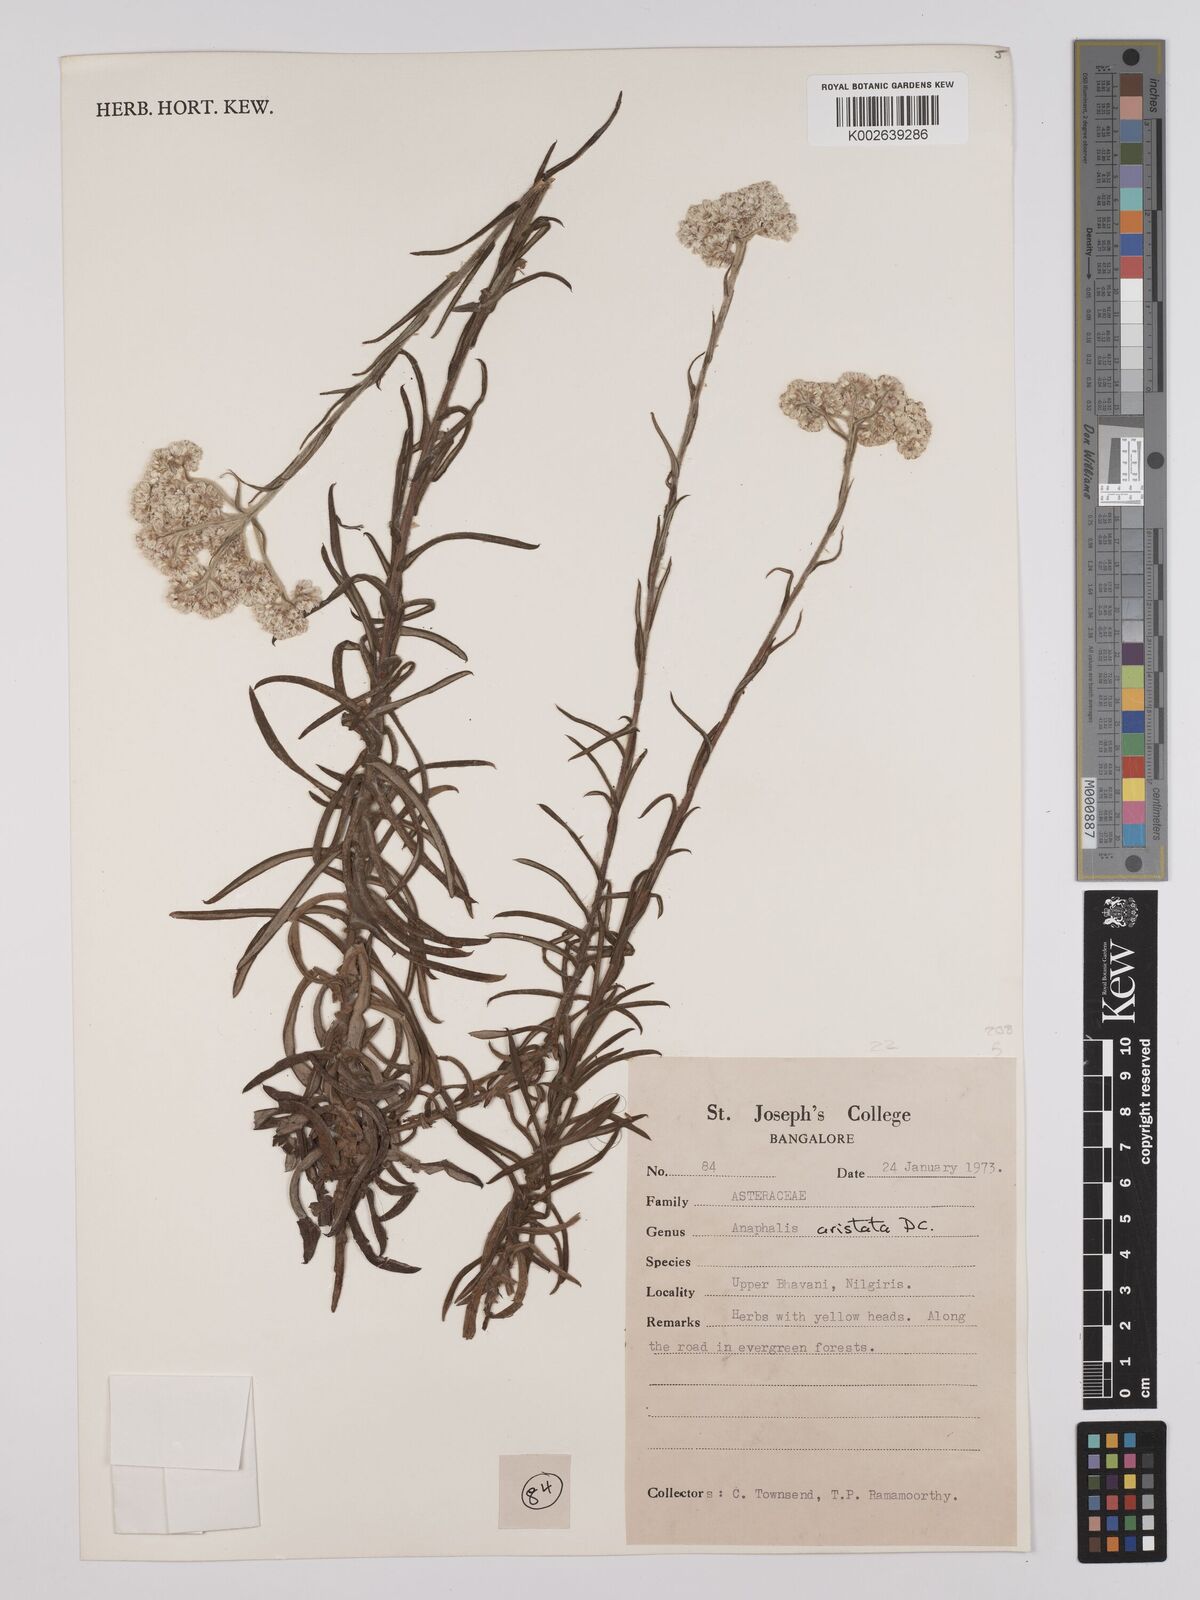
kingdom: Plantae
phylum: Tracheophyta
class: Magnoliopsida
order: Asterales
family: Asteraceae
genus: Anaphalis
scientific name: Anaphalis aristata
